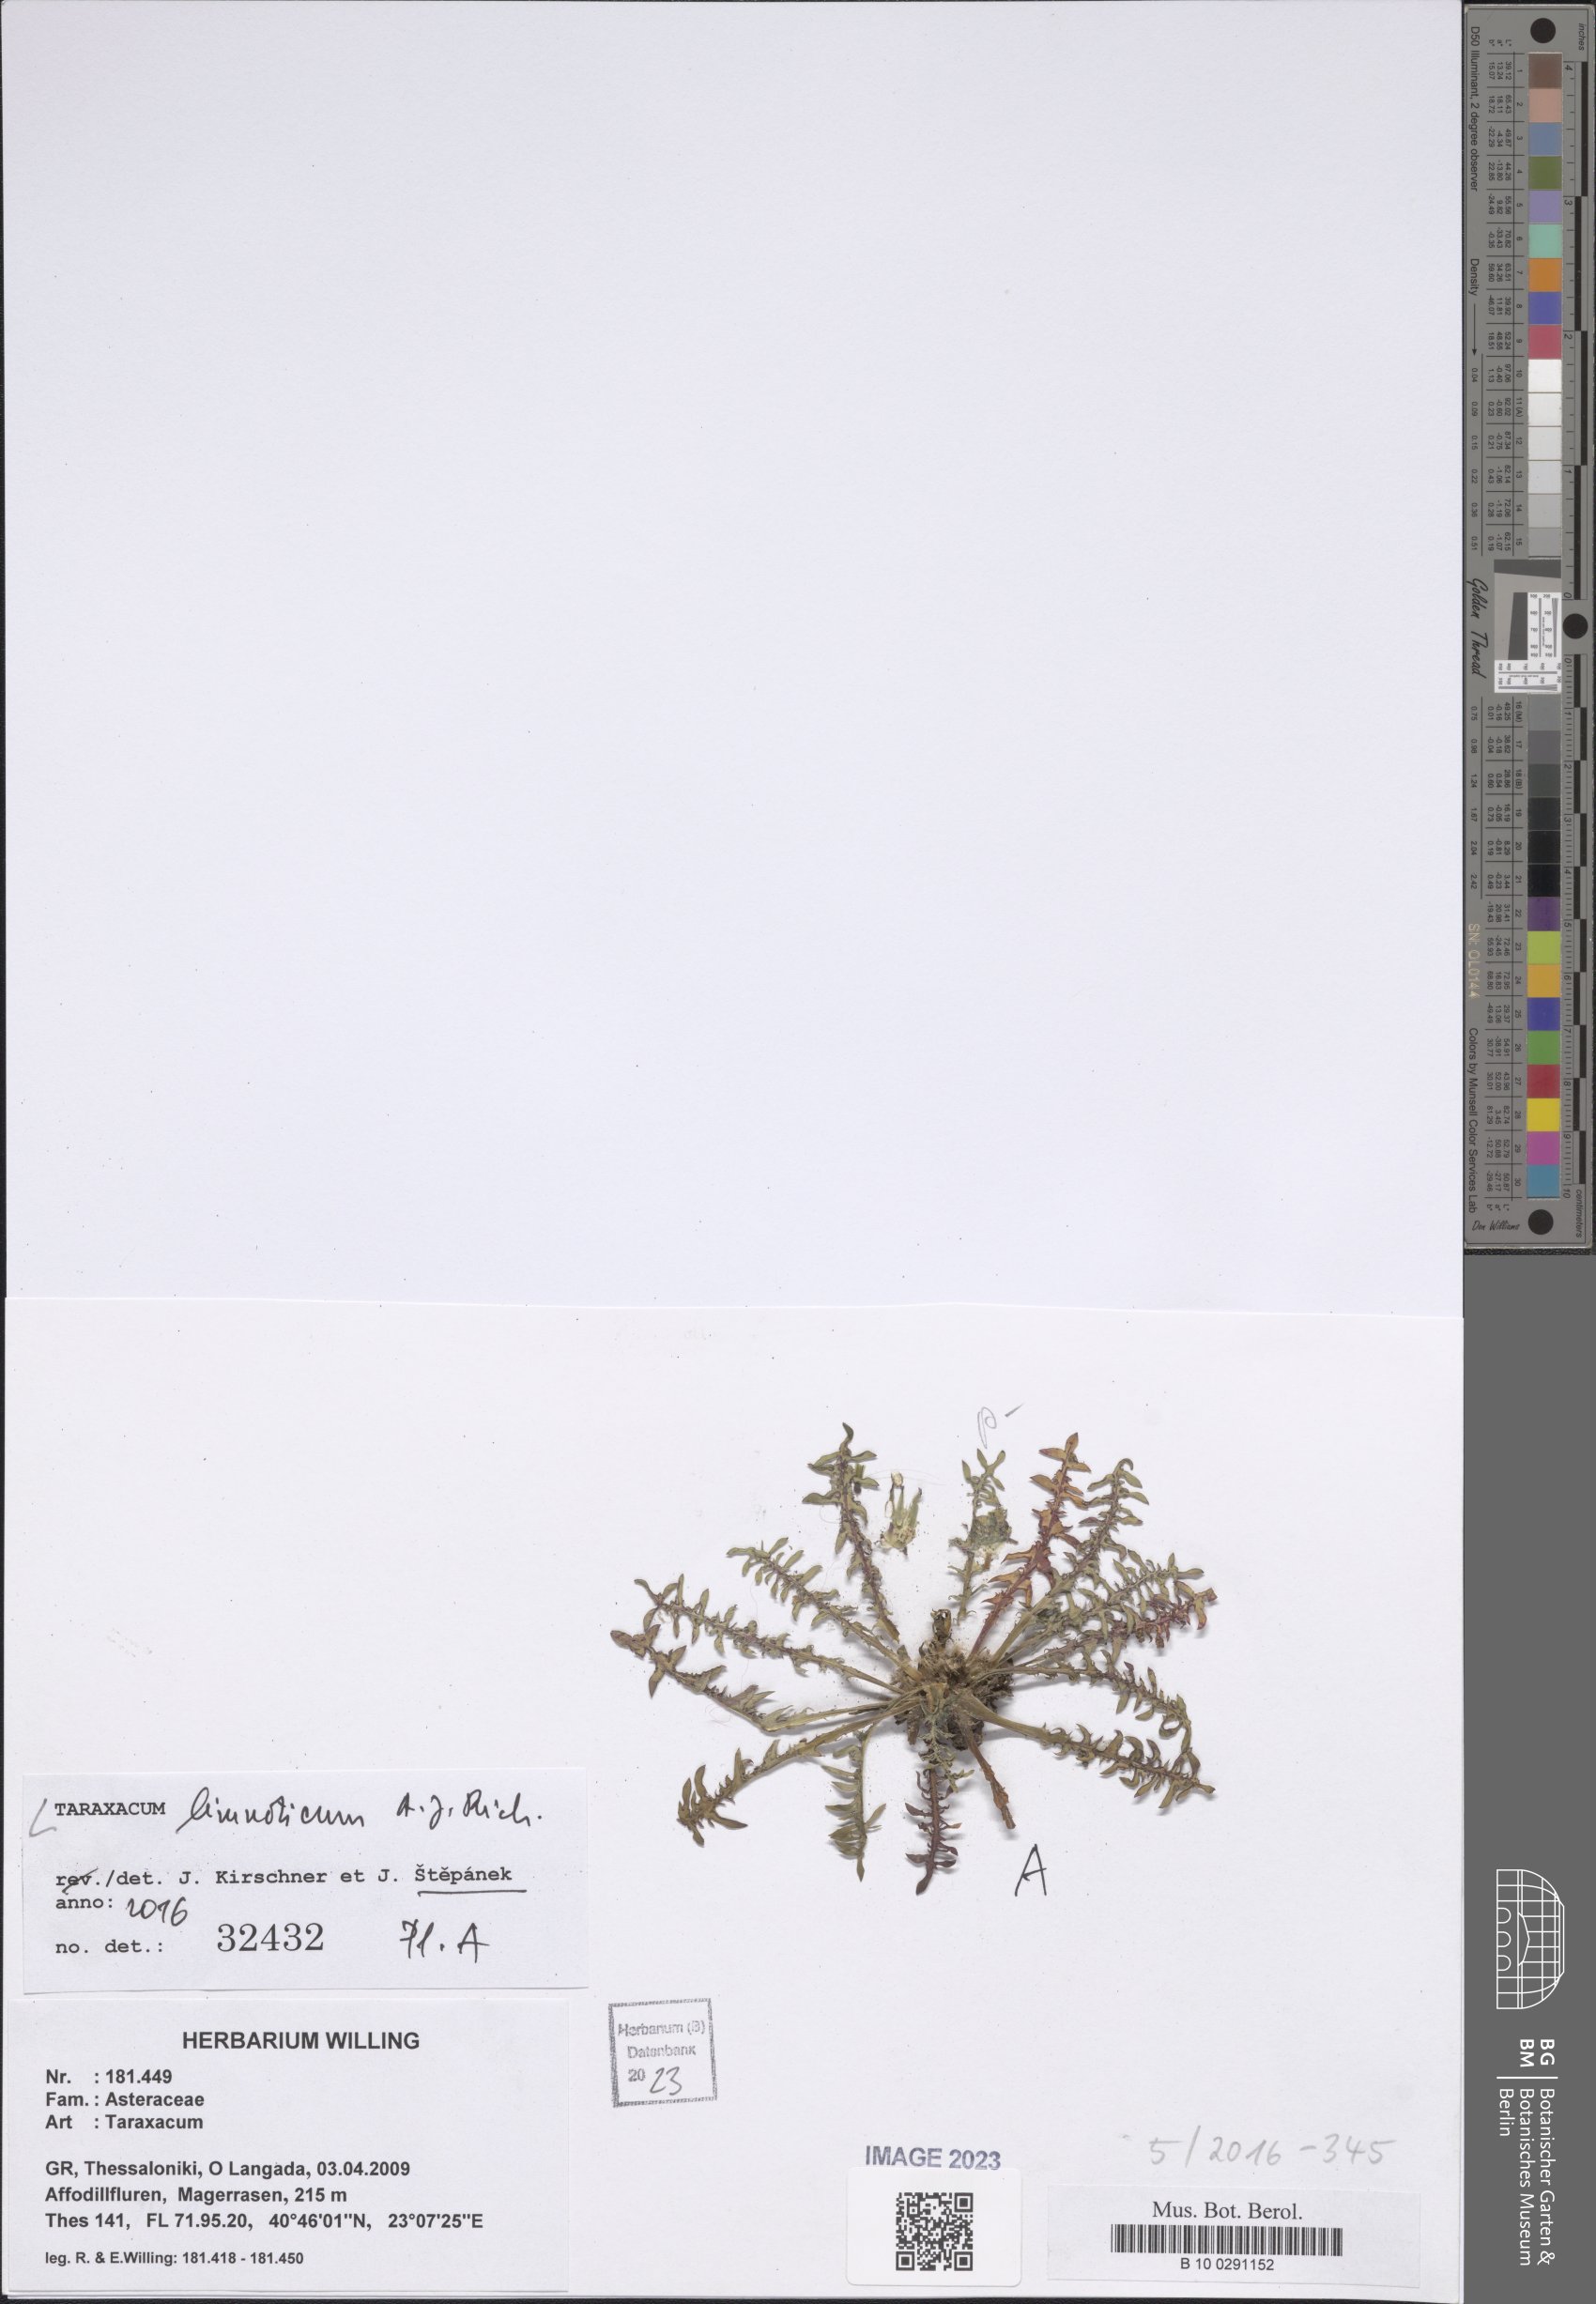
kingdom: Plantae
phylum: Tracheophyta
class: Magnoliopsida
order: Asterales
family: Asteraceae
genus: Taraxacum
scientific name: Taraxacum limnoticum
